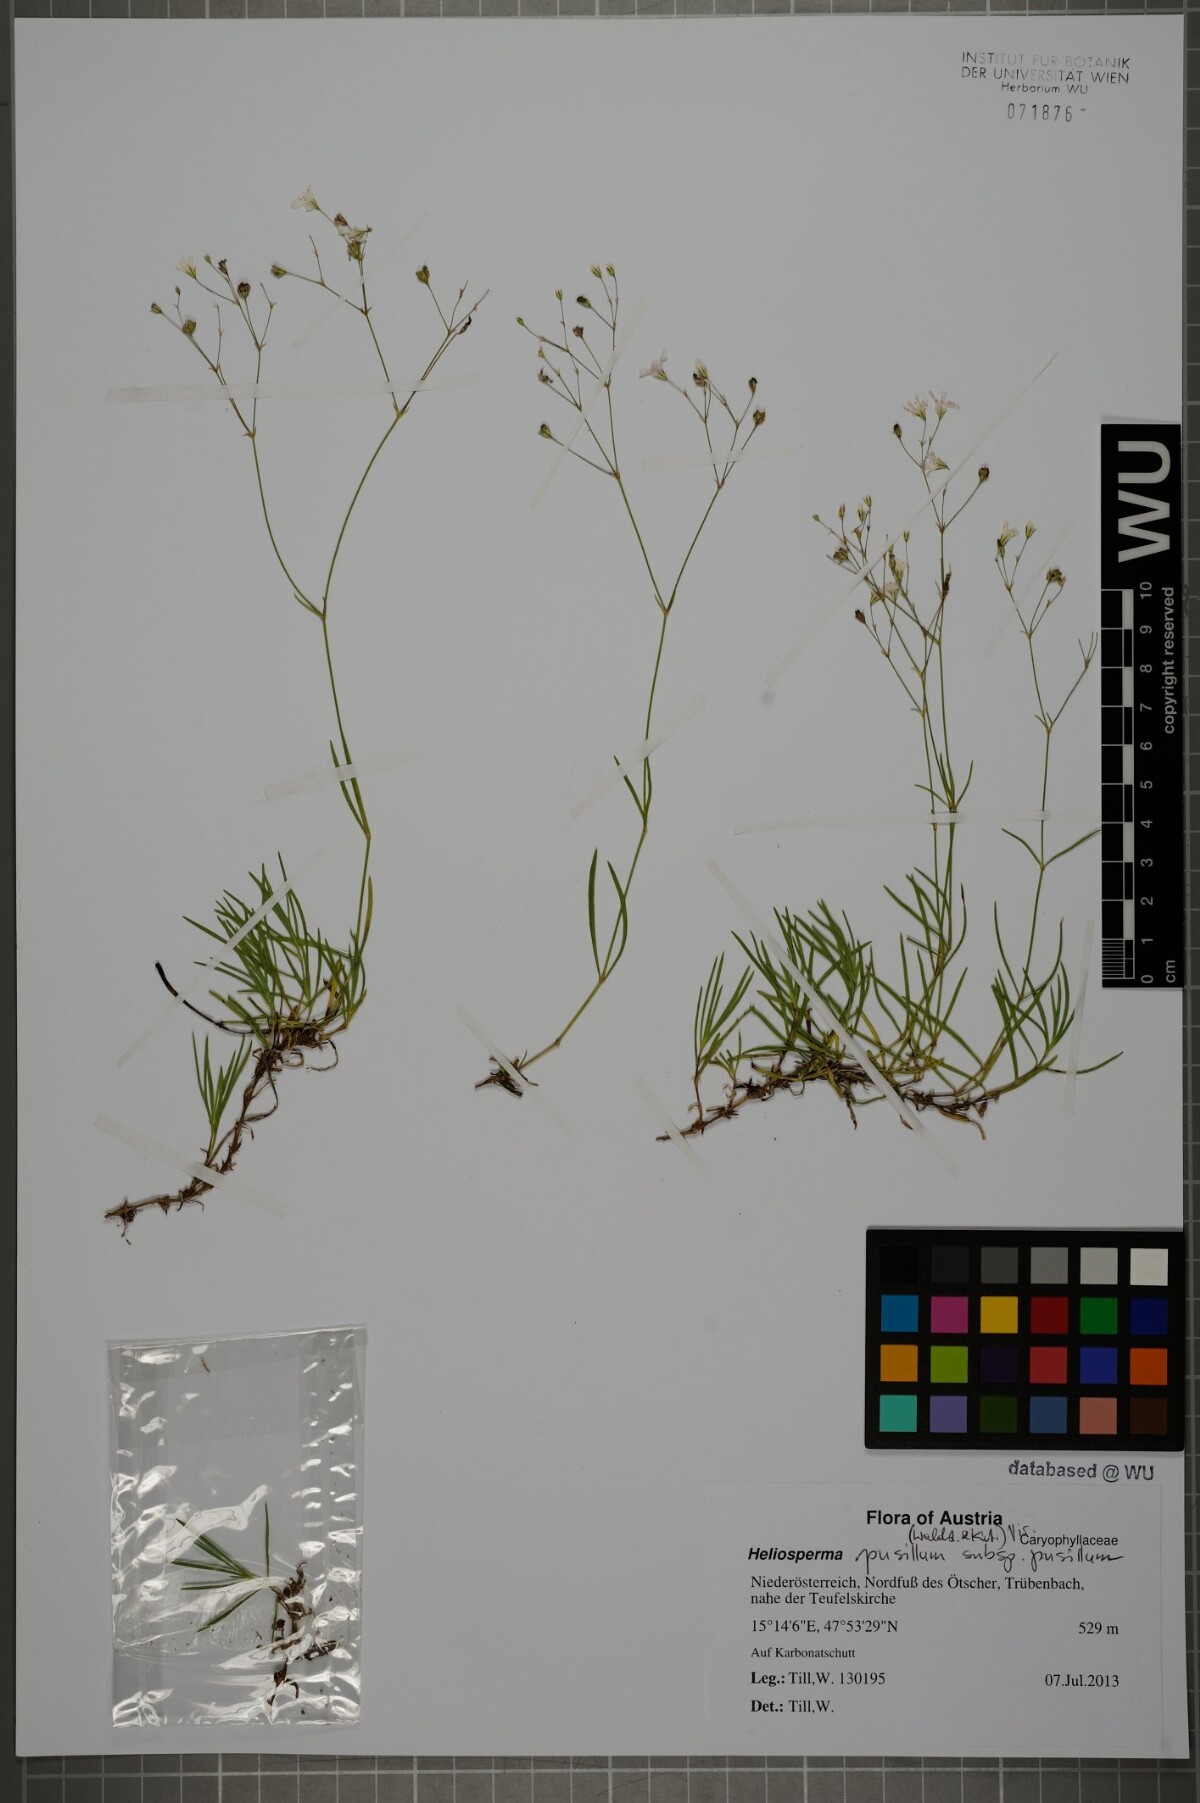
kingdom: Plantae
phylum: Tracheophyta
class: Magnoliopsida
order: Caryophyllales
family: Caryophyllaceae
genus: Heliosperma
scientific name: Heliosperma pusillum
